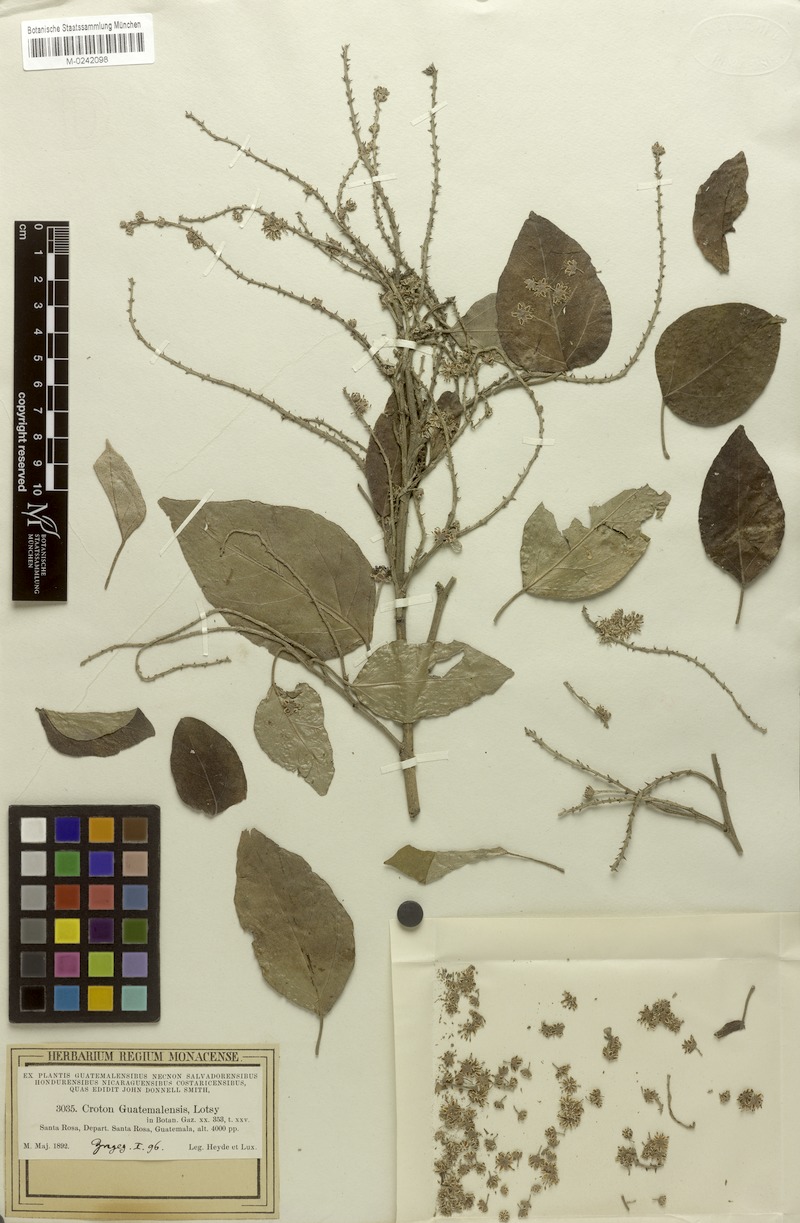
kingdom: Plantae
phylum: Tracheophyta
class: Magnoliopsida
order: Malpighiales
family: Euphorbiaceae
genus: Croton
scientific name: Croton guatemalensis
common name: Copalchi
